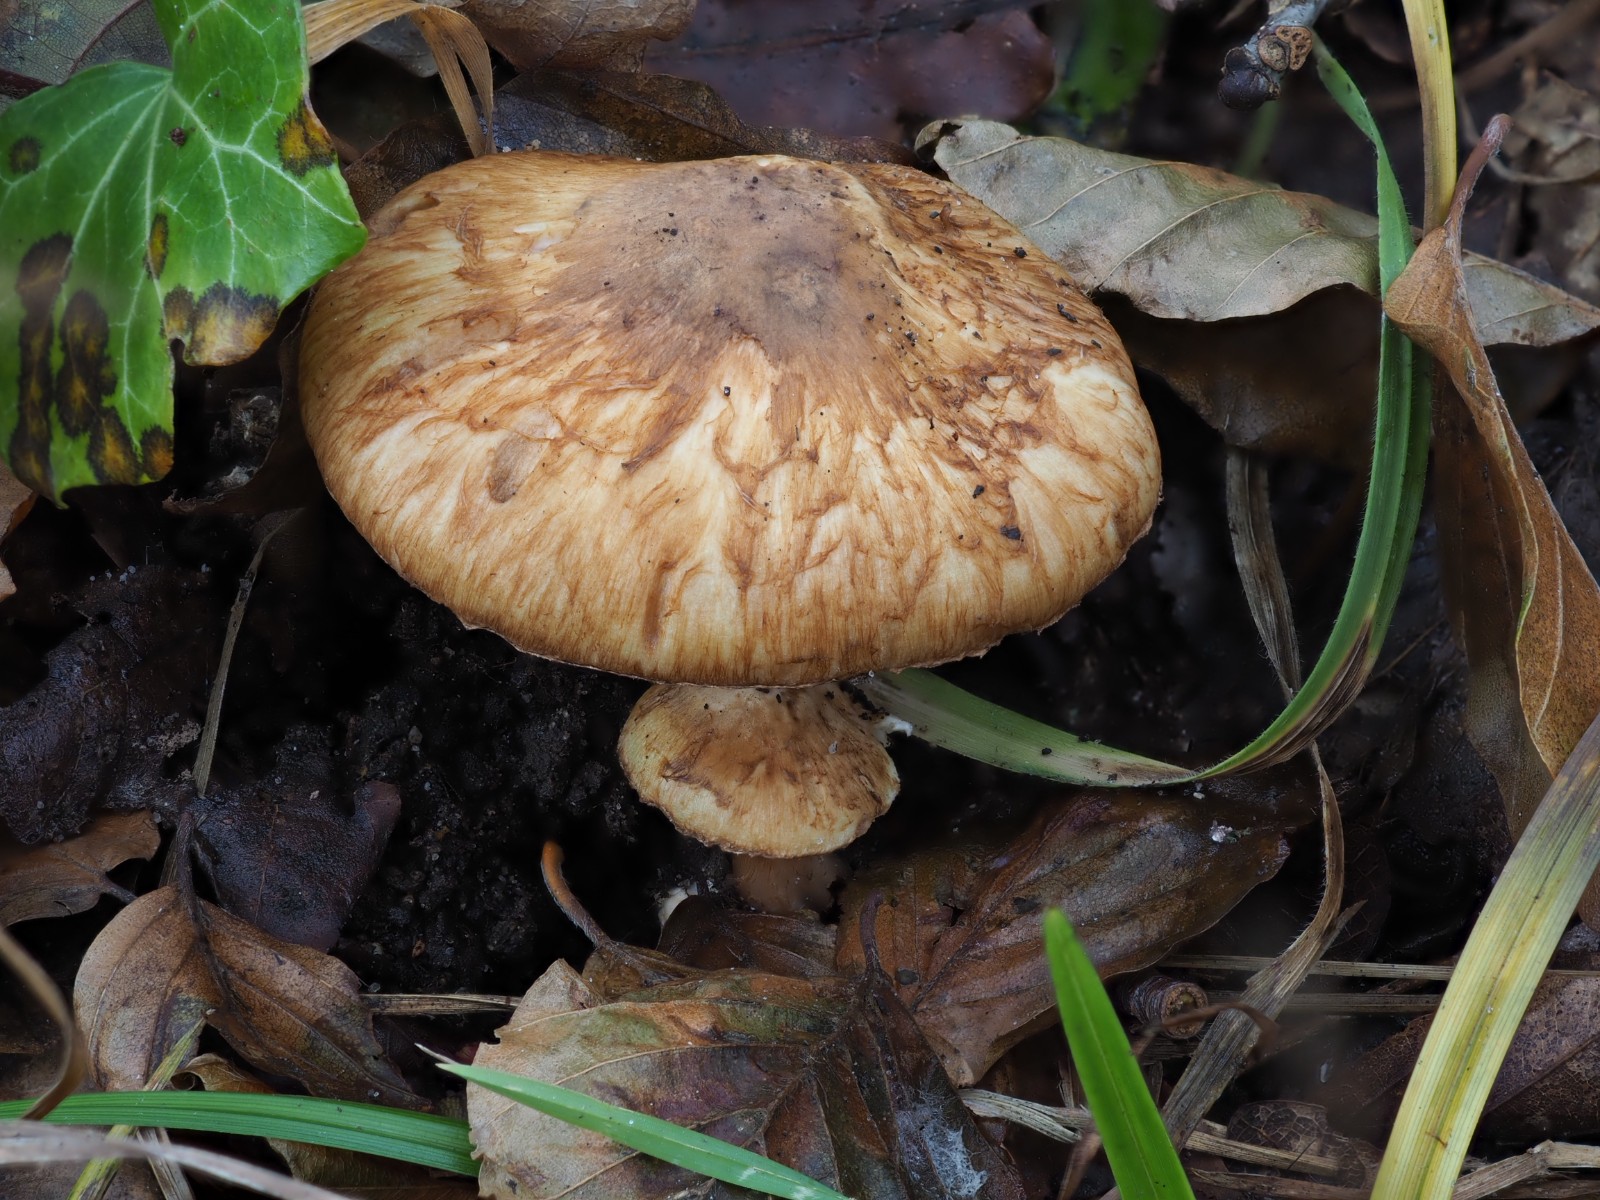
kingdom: Fungi
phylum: Basidiomycota
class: Agaricomycetes
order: Agaricales
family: Inocybaceae
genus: Inocybe
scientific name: Inocybe fraudans
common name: pæreduftende trævlhat
